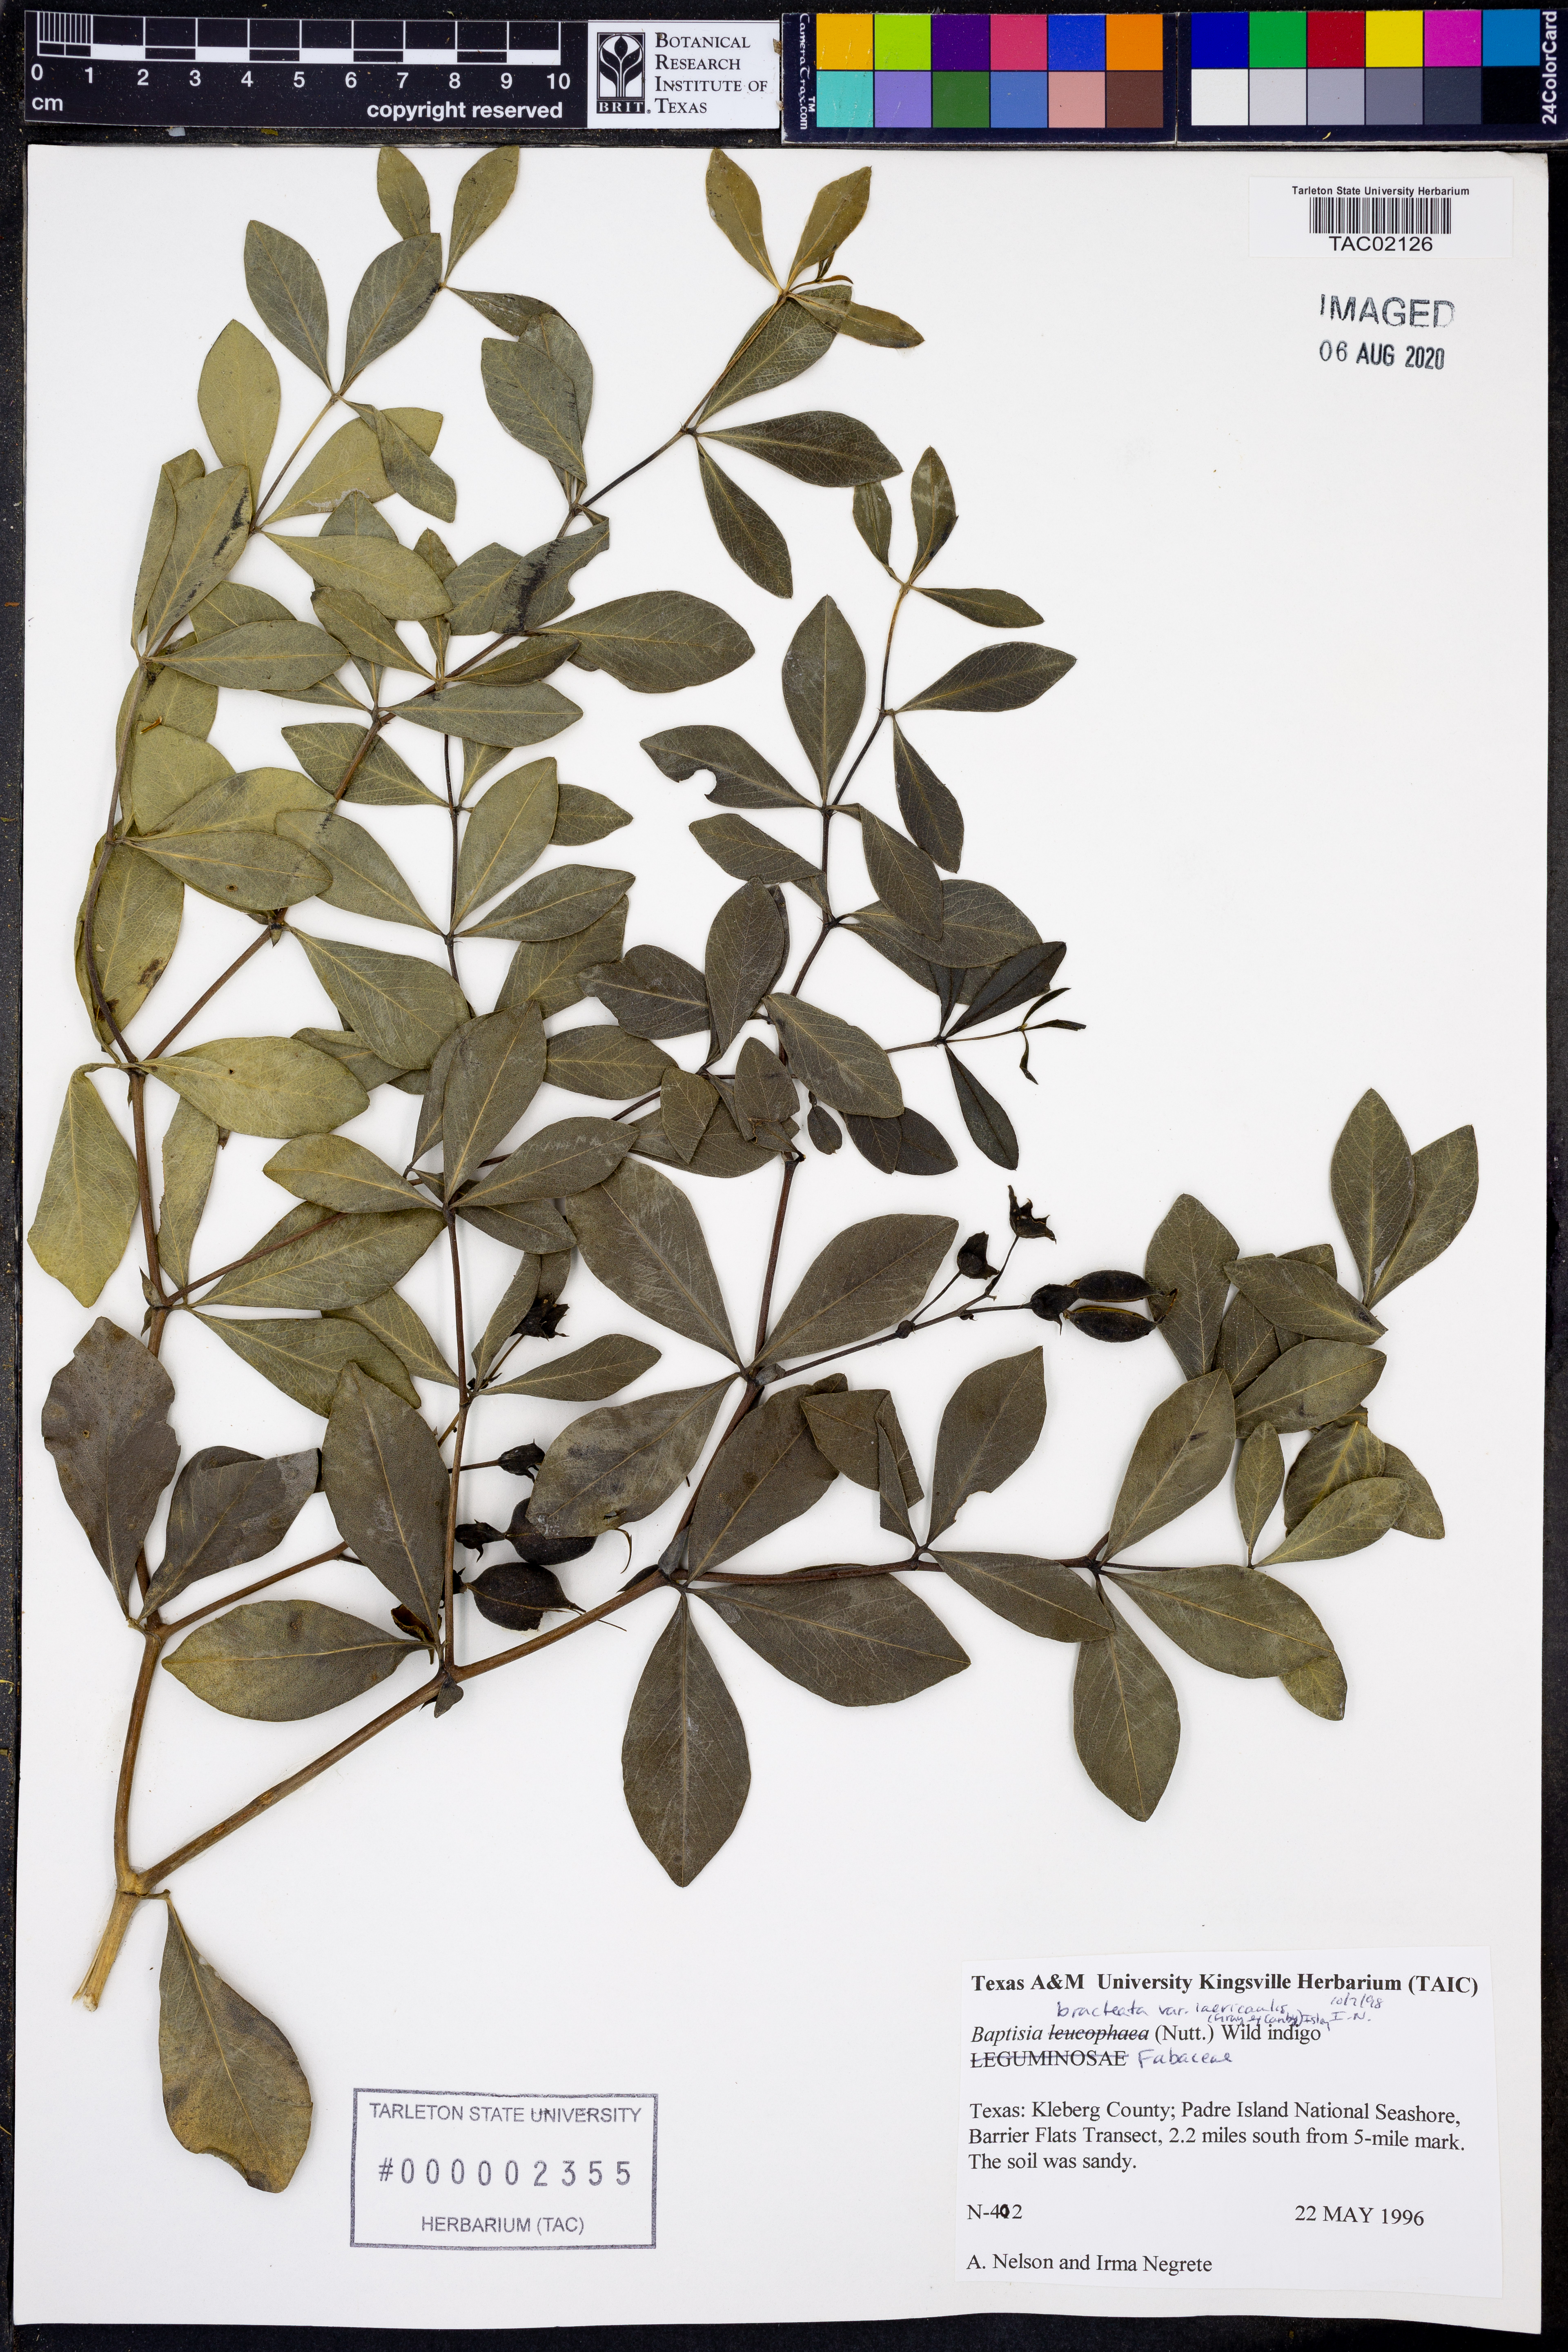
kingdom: Plantae
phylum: Tracheophyta
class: Magnoliopsida
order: Fabales
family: Fabaceae
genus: Baptisia
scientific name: Baptisia bracteata
